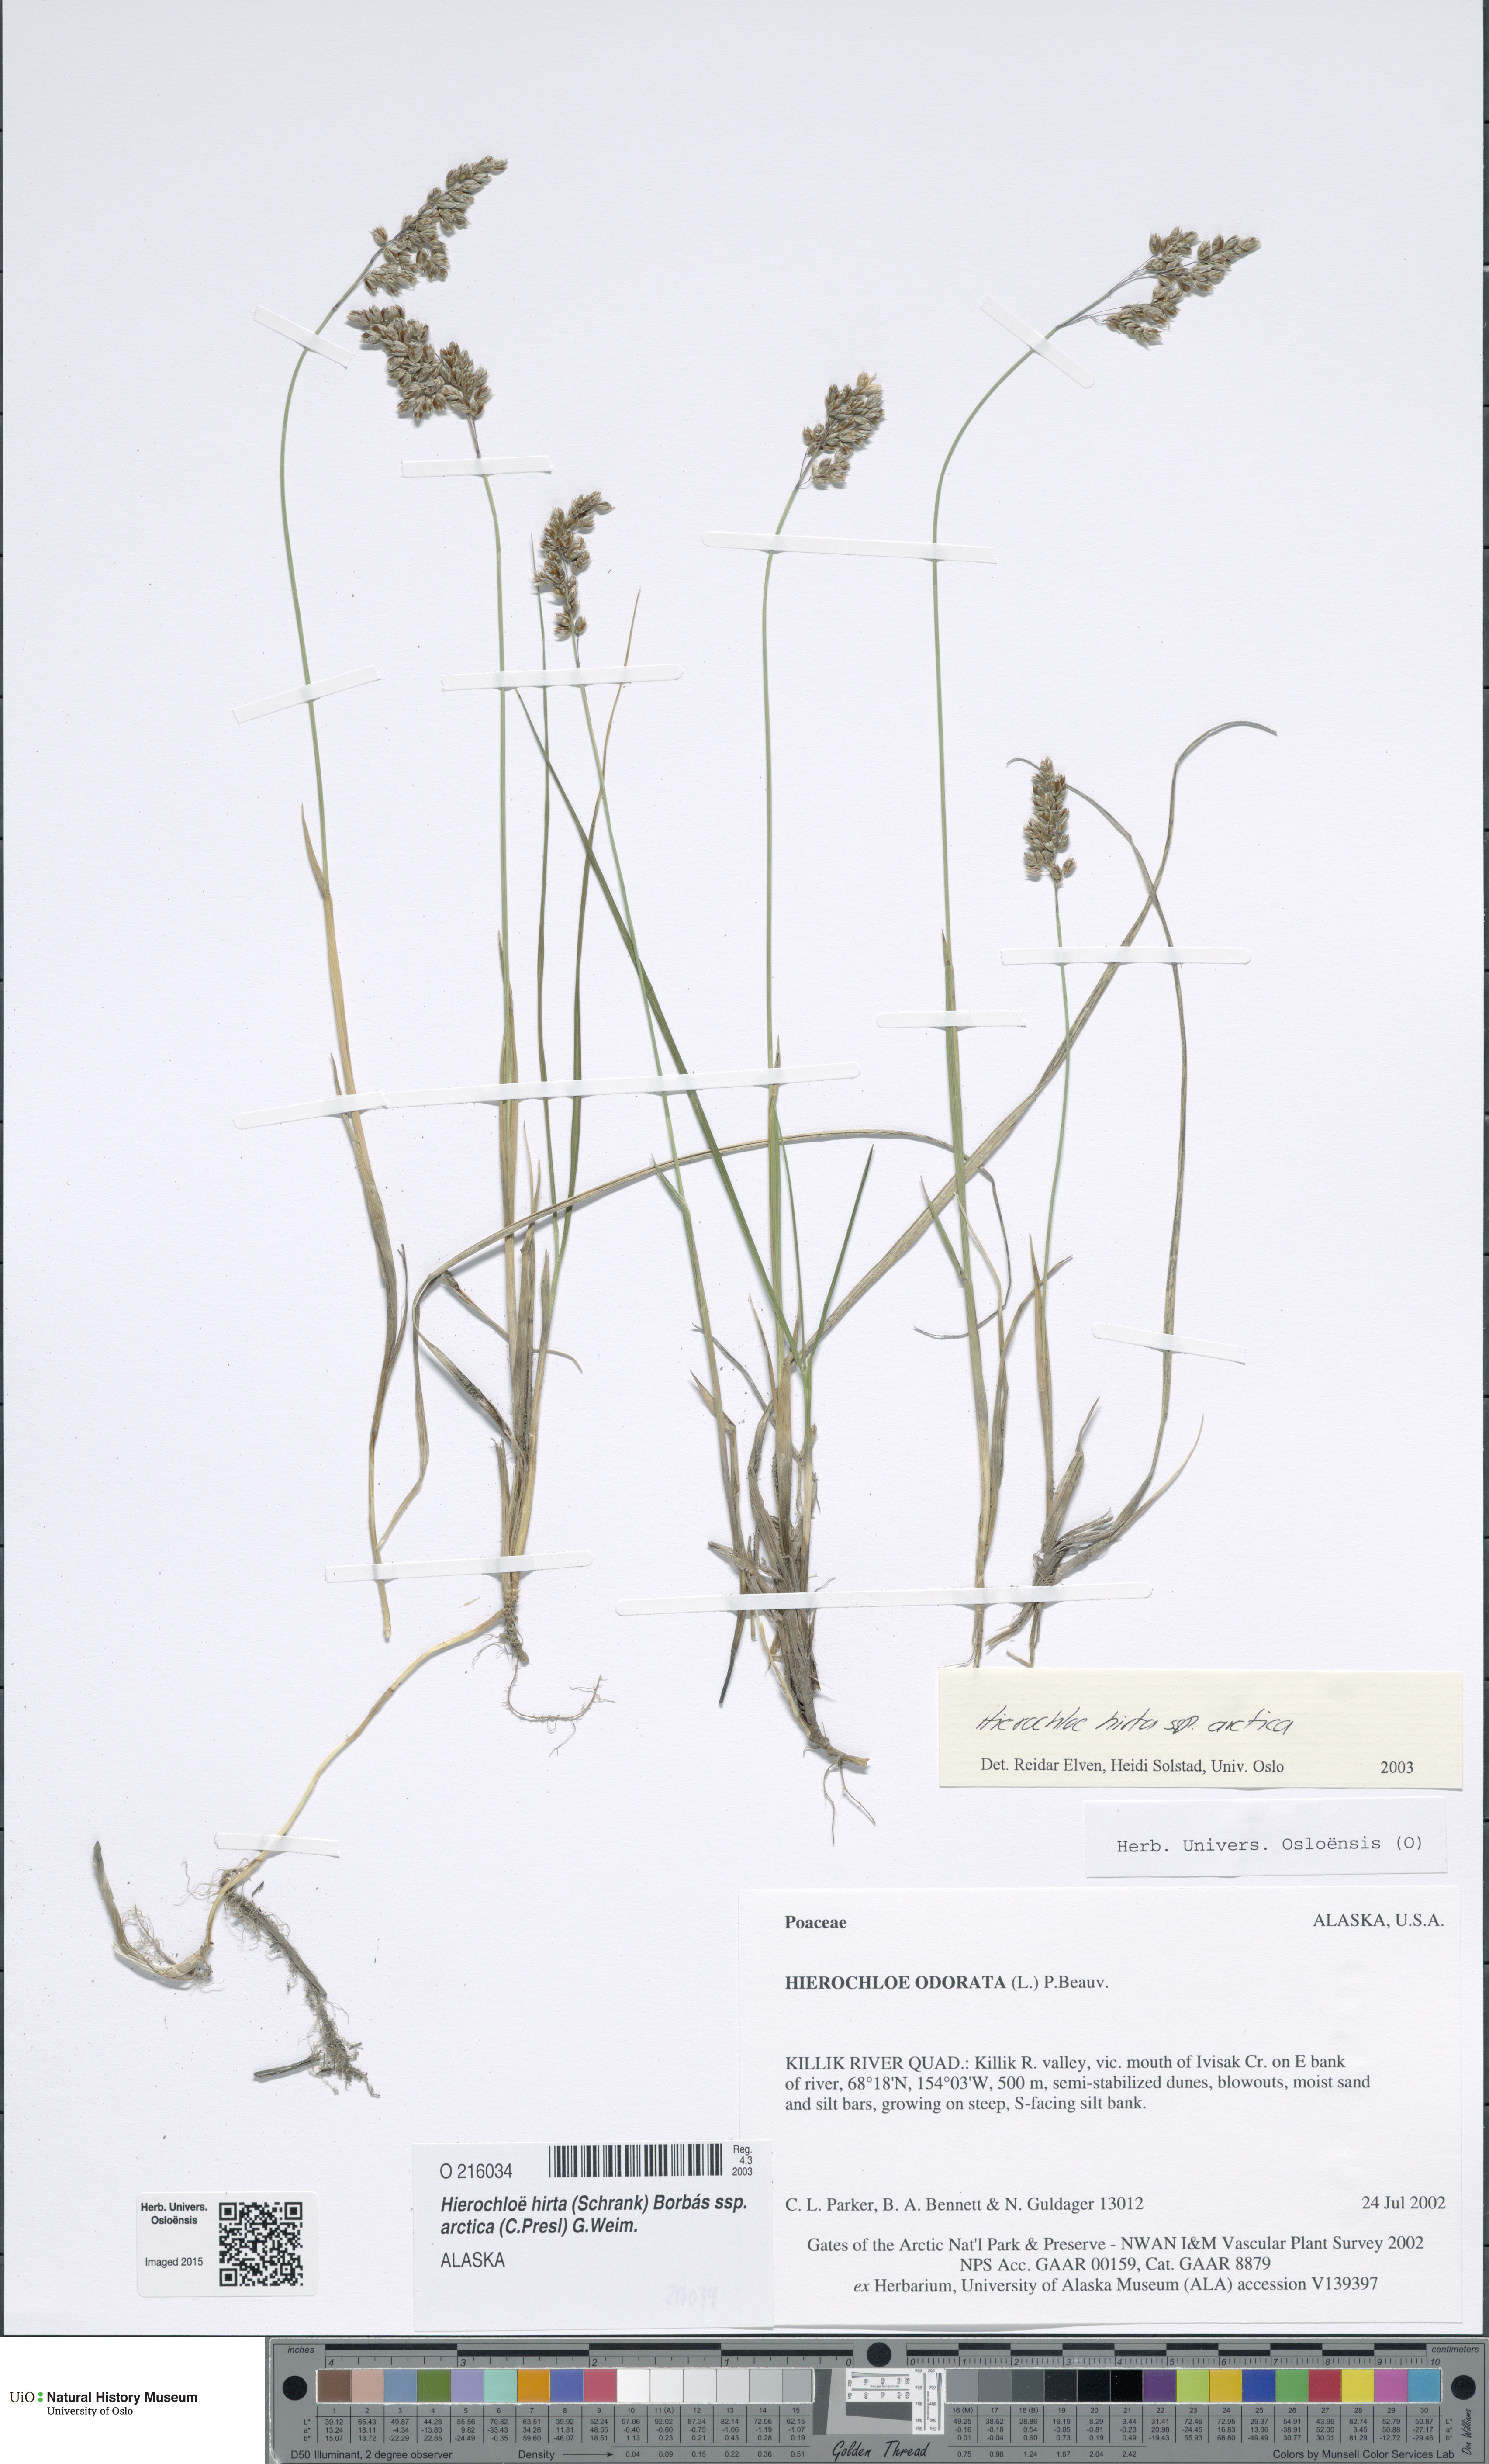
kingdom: Plantae
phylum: Tracheophyta
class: Liliopsida
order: Poales
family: Poaceae
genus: Anthoxanthum
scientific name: Anthoxanthum nitens
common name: Holy grass
